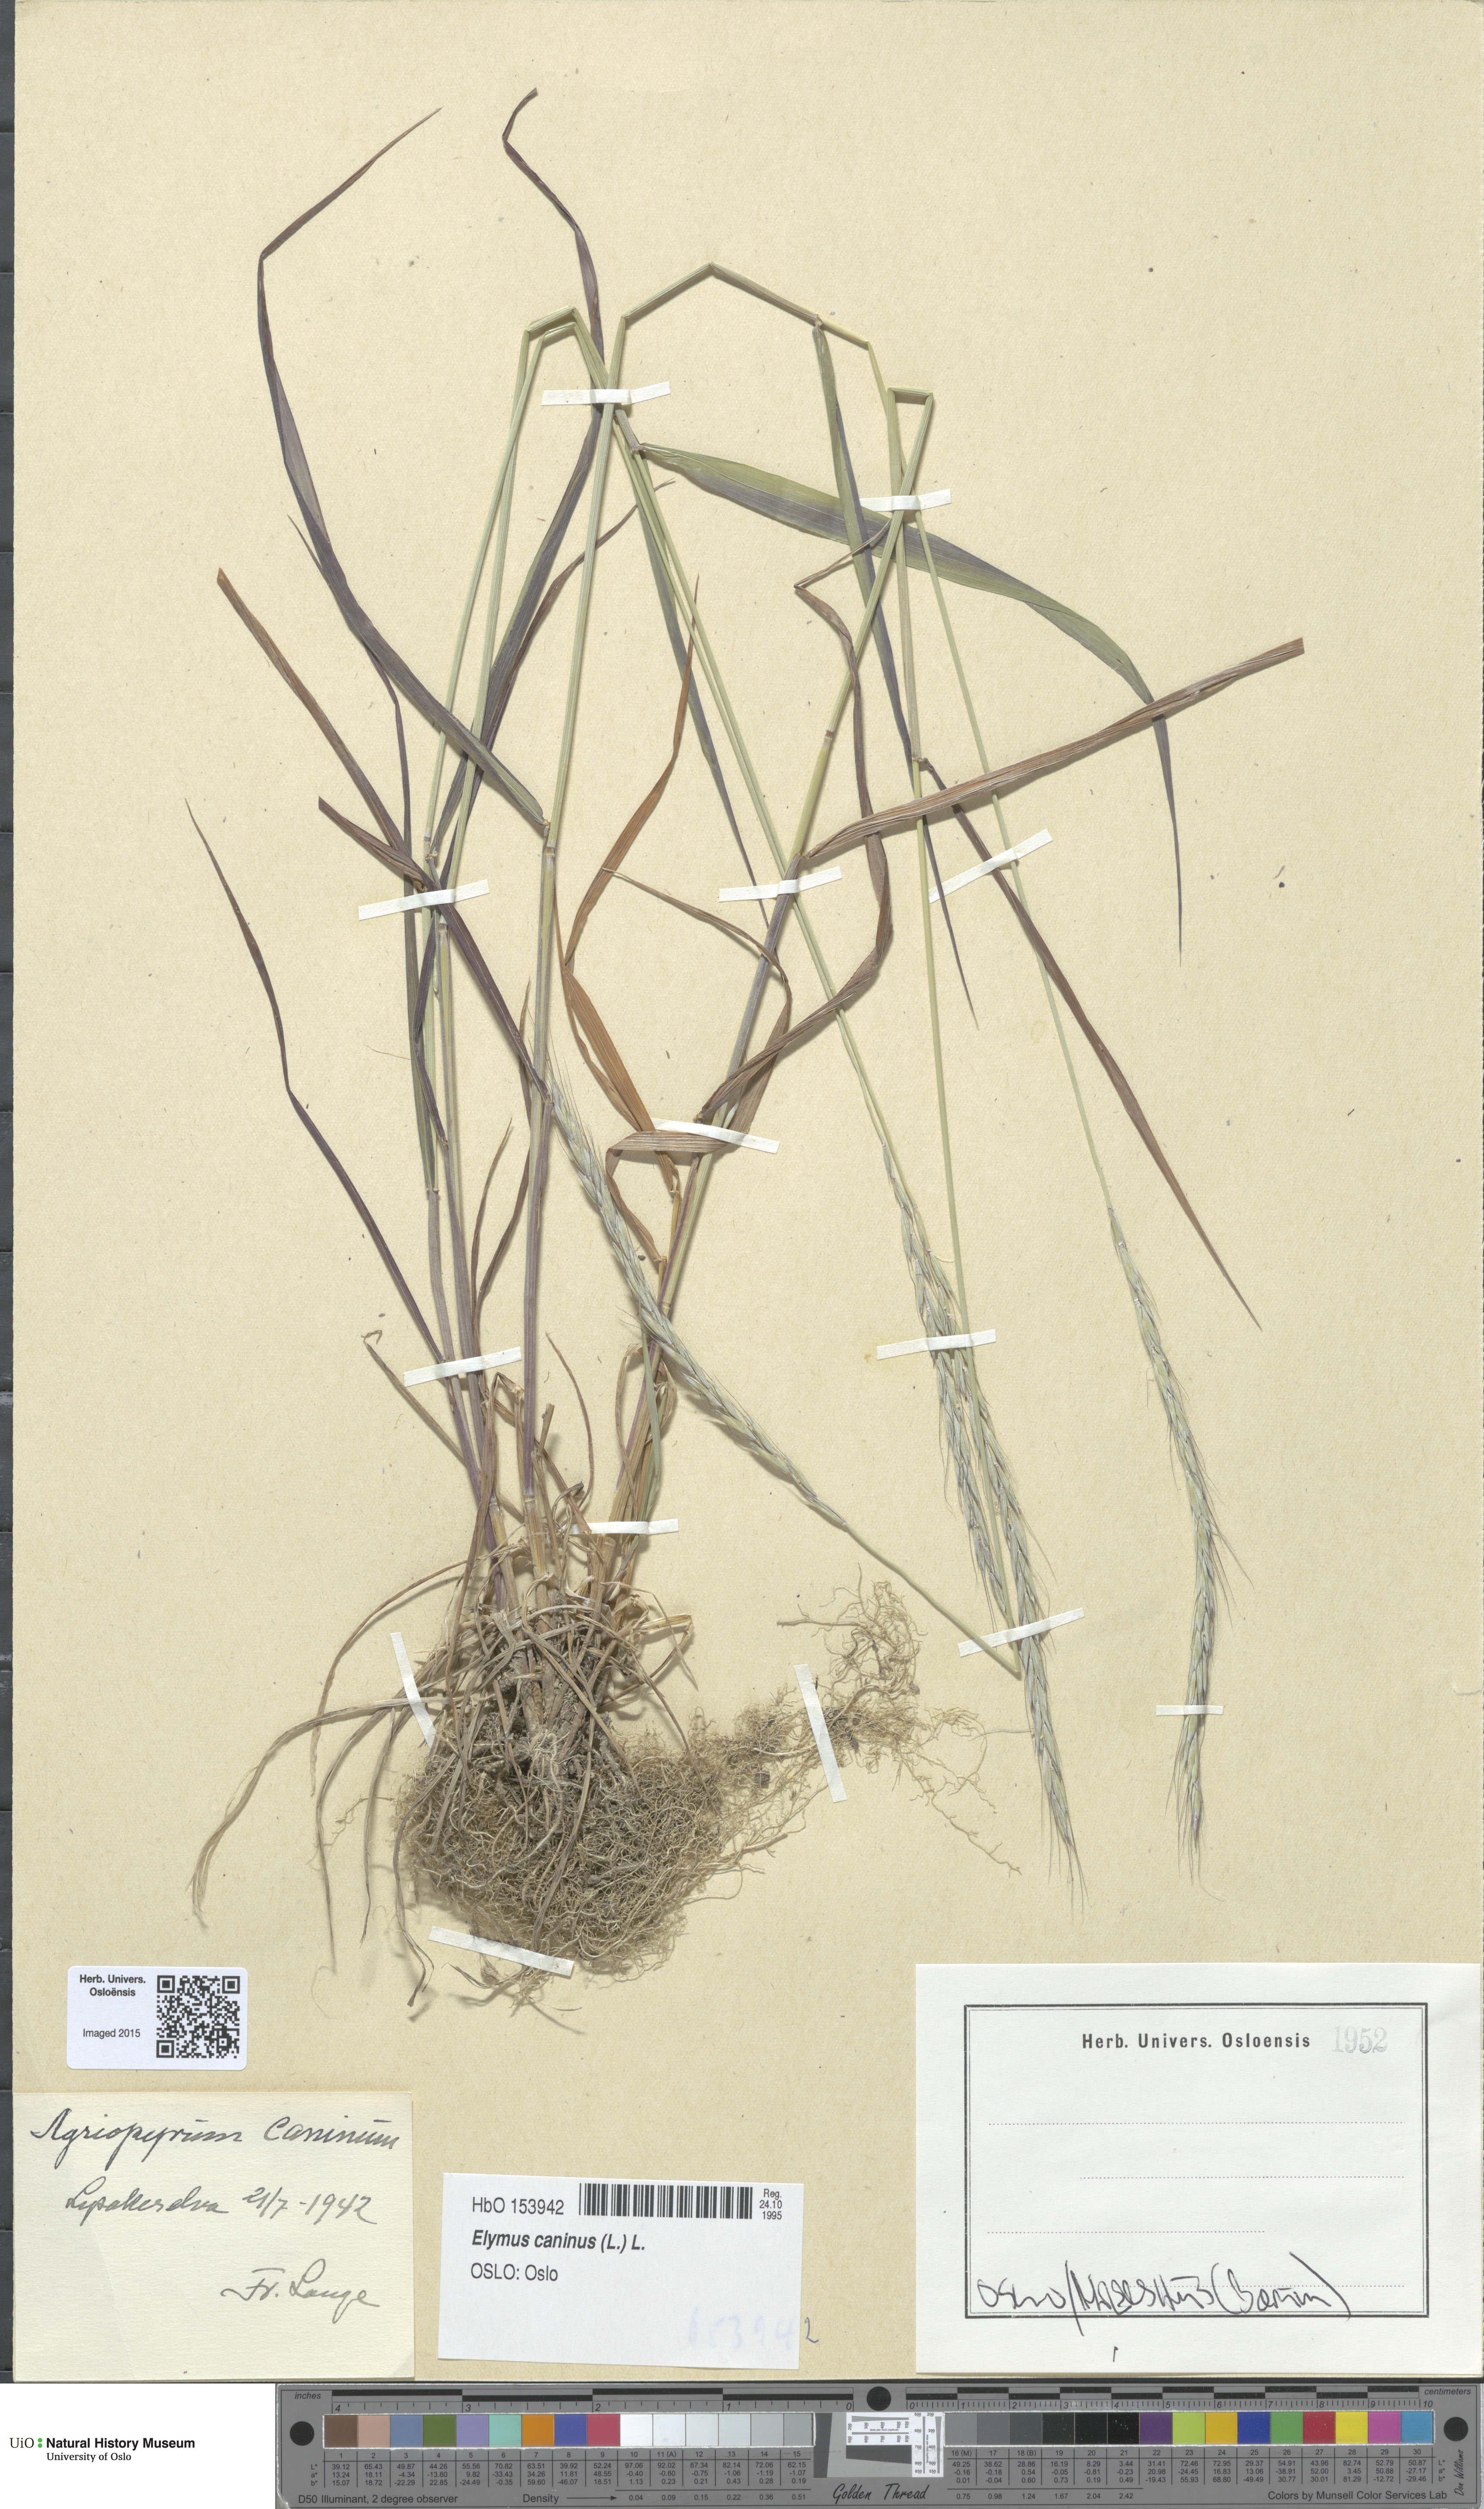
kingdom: Plantae
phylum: Tracheophyta
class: Liliopsida
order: Poales
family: Poaceae
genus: Elymus
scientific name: Elymus caninus
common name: Bearded couch
